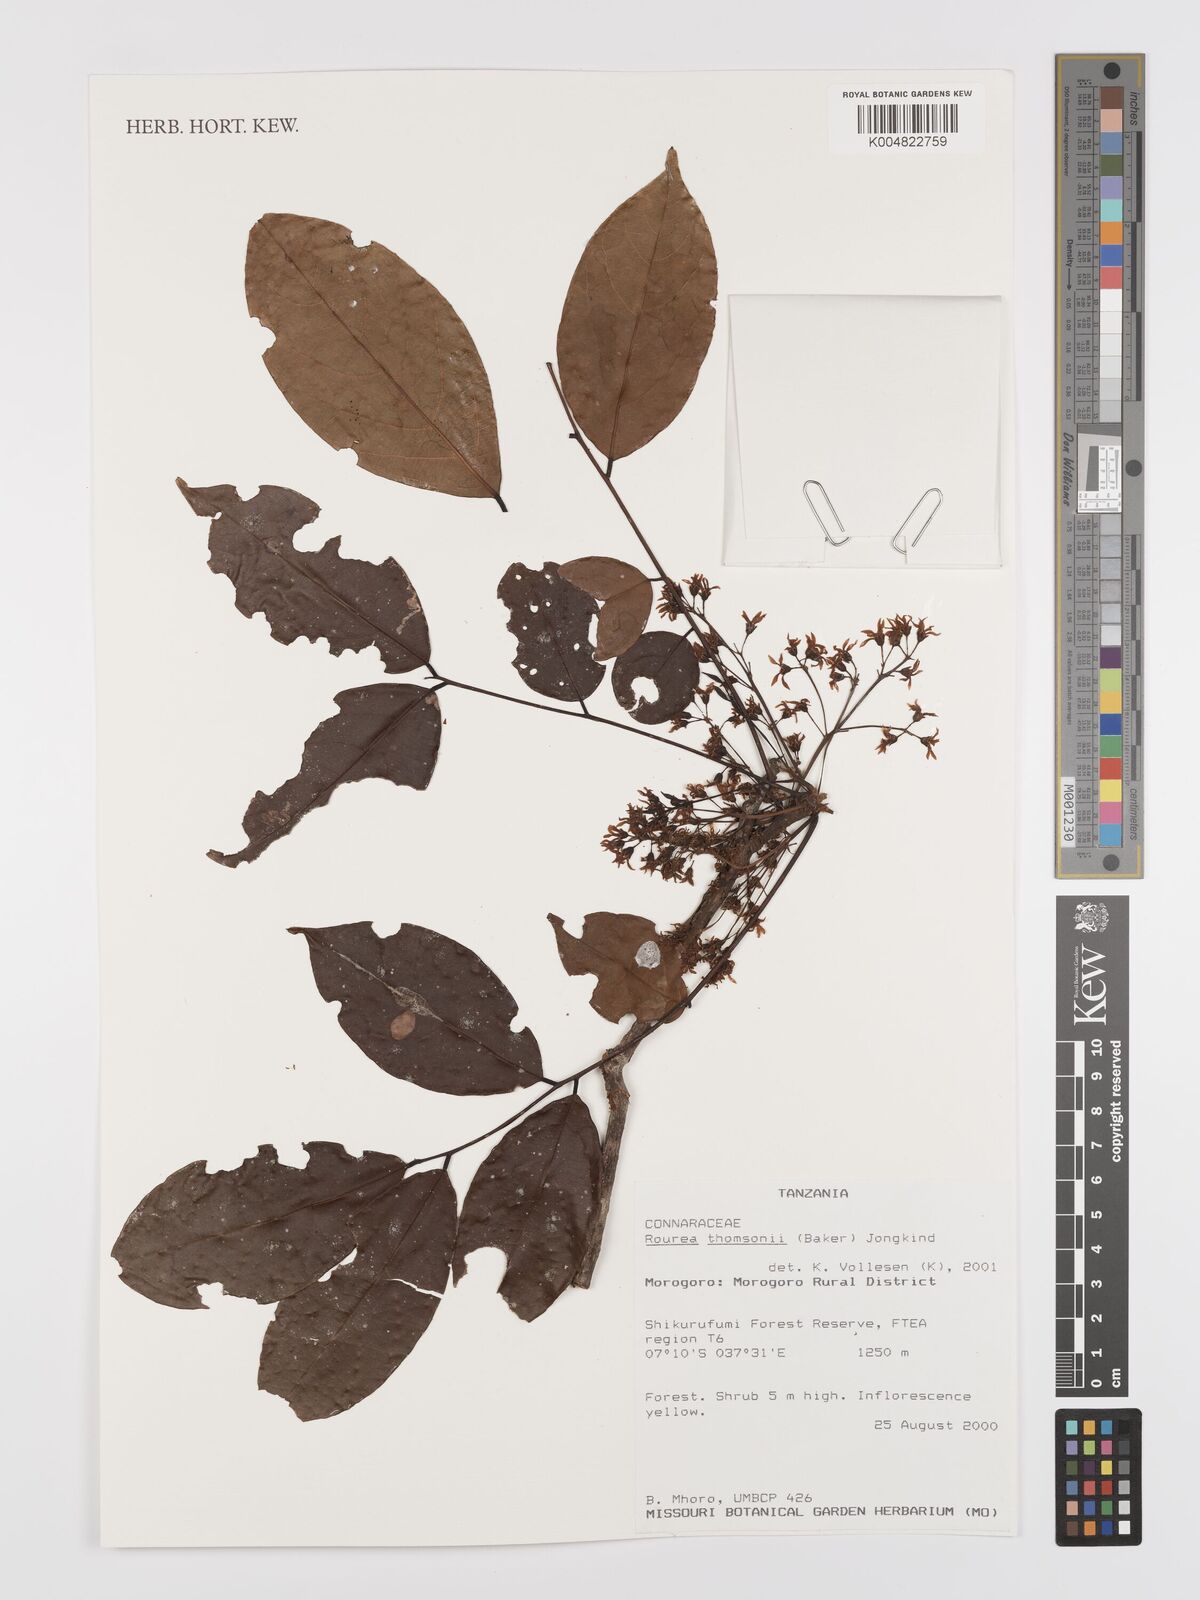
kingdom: Plantae
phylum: Tracheophyta
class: Magnoliopsida
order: Oxalidales
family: Connaraceae
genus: Rourea
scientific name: Rourea thomsonii
